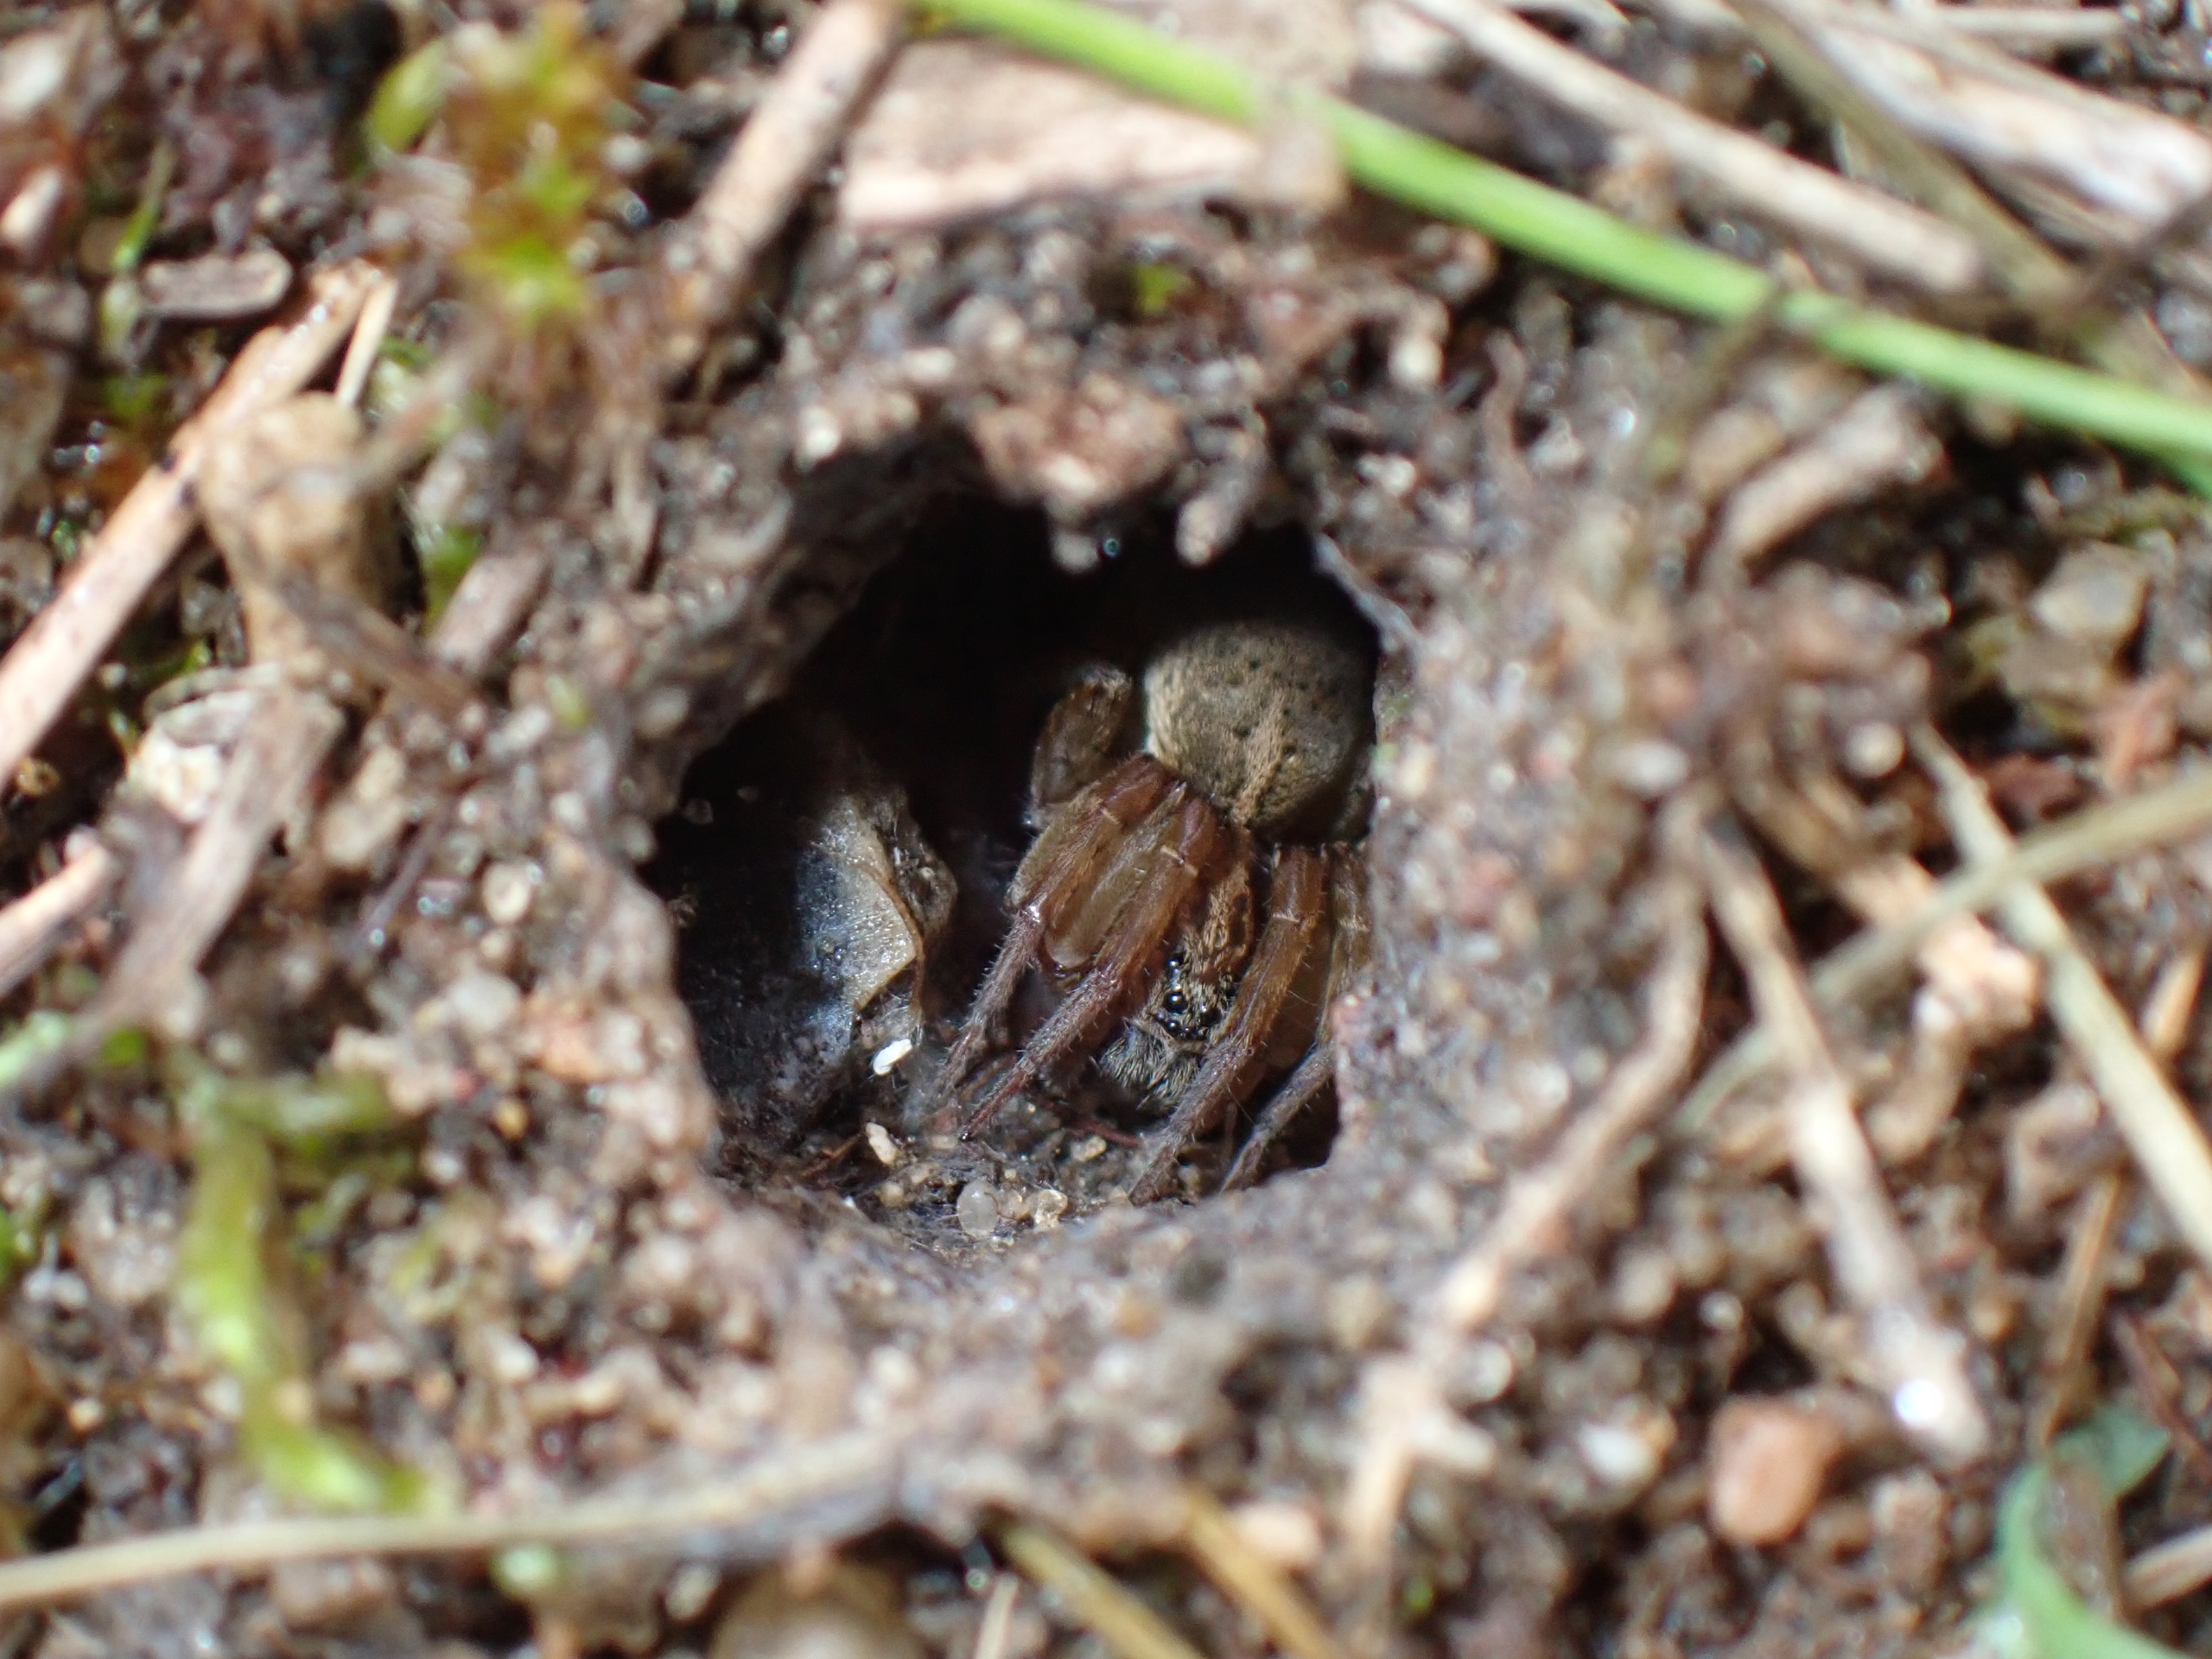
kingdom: Animalia
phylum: Arthropoda
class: Arachnida
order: Araneae
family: Lycosidae
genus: Trochosa
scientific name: Trochosa ruricola
